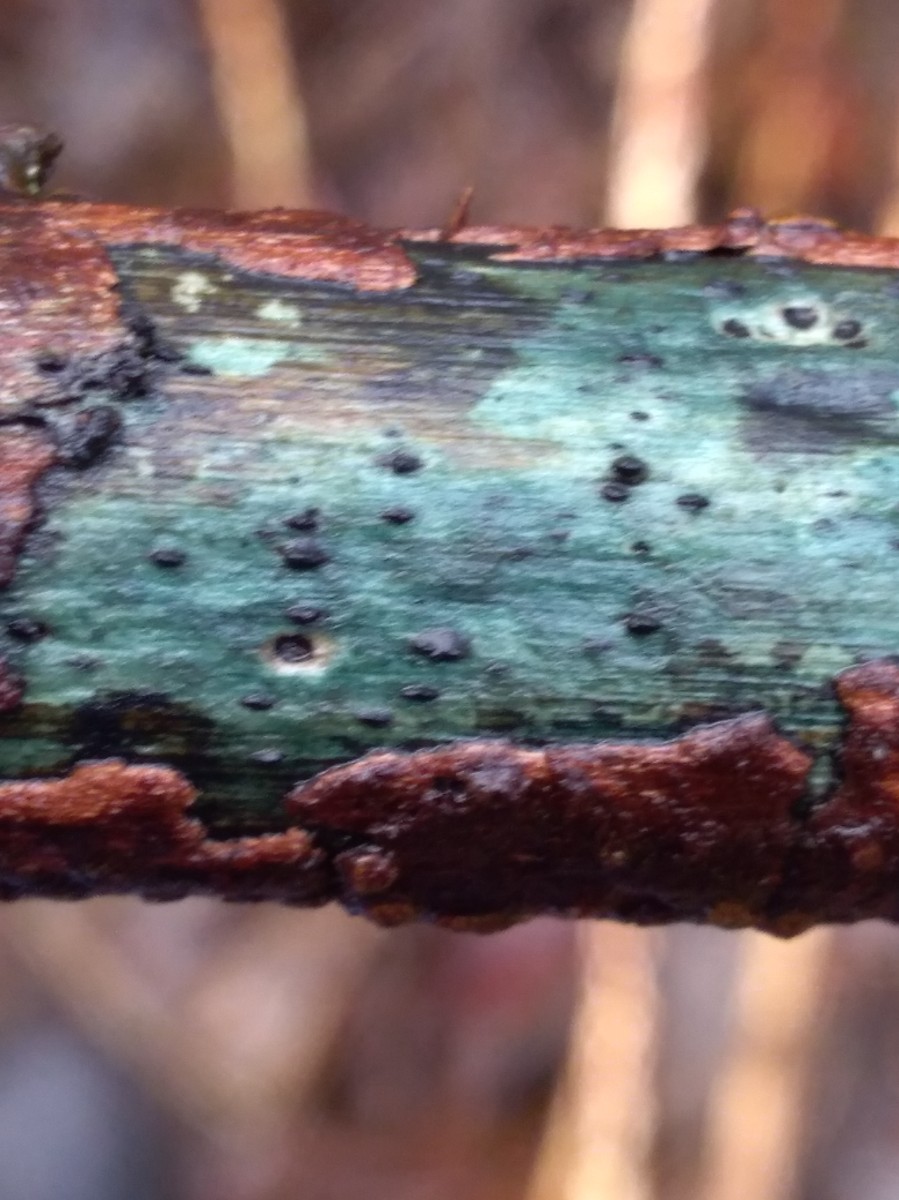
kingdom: Fungi
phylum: Ascomycota
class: Dothideomycetes
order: Pleosporales
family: Lophiostomataceae
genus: Lophiostoma
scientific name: Lophiostoma viridarium
